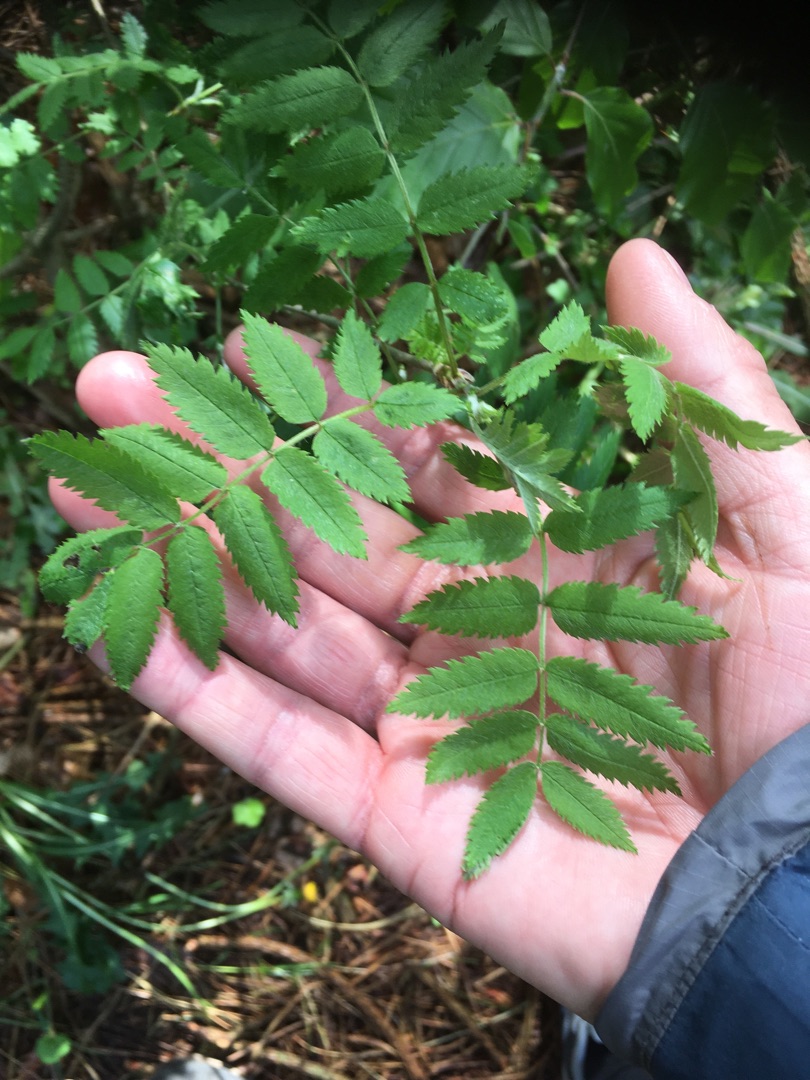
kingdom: Plantae
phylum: Tracheophyta
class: Magnoliopsida
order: Rosales
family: Rosaceae
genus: Sorbus
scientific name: Sorbus aucuparia
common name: Almindelig røn
